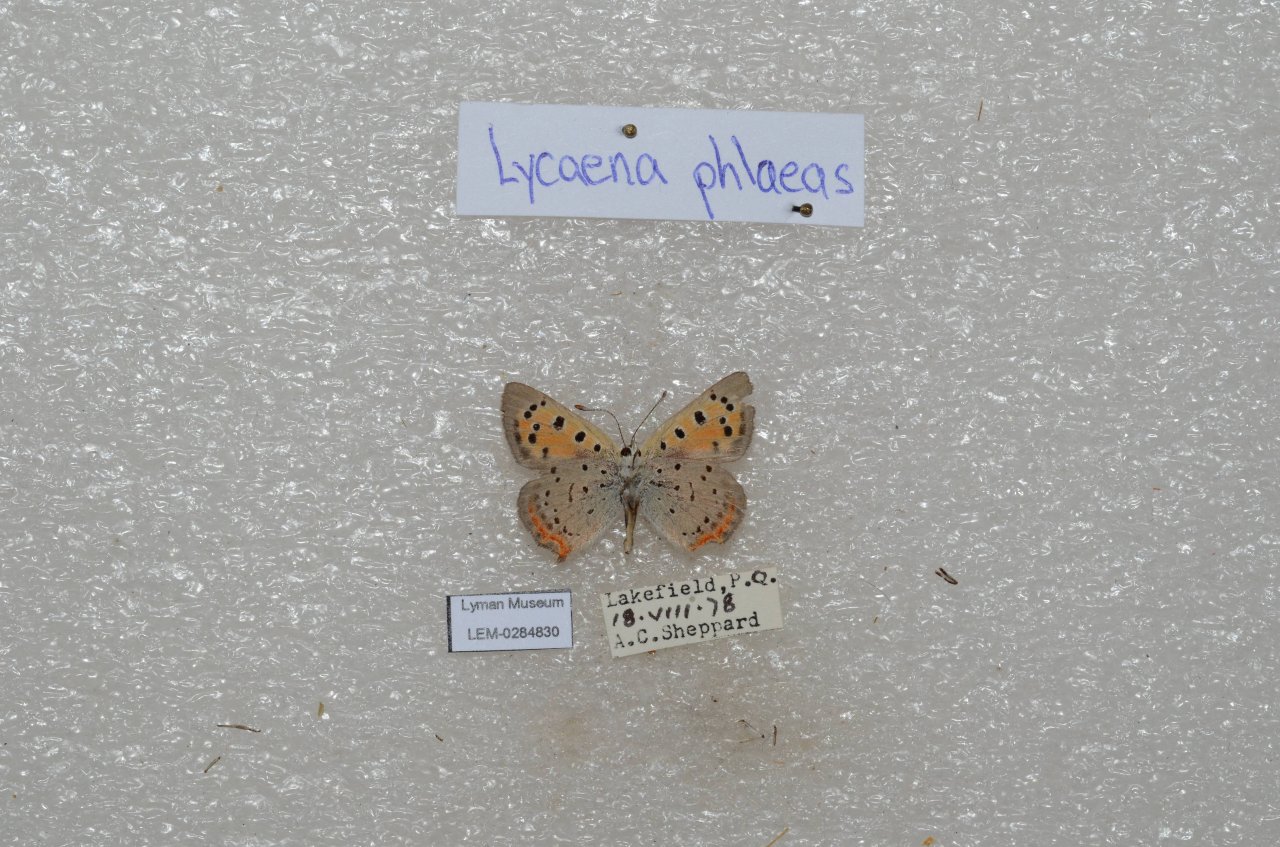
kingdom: Animalia
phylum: Arthropoda
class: Insecta
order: Lepidoptera
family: Lycaenidae
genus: Lycaena
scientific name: Lycaena phlaeas
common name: American Copper
